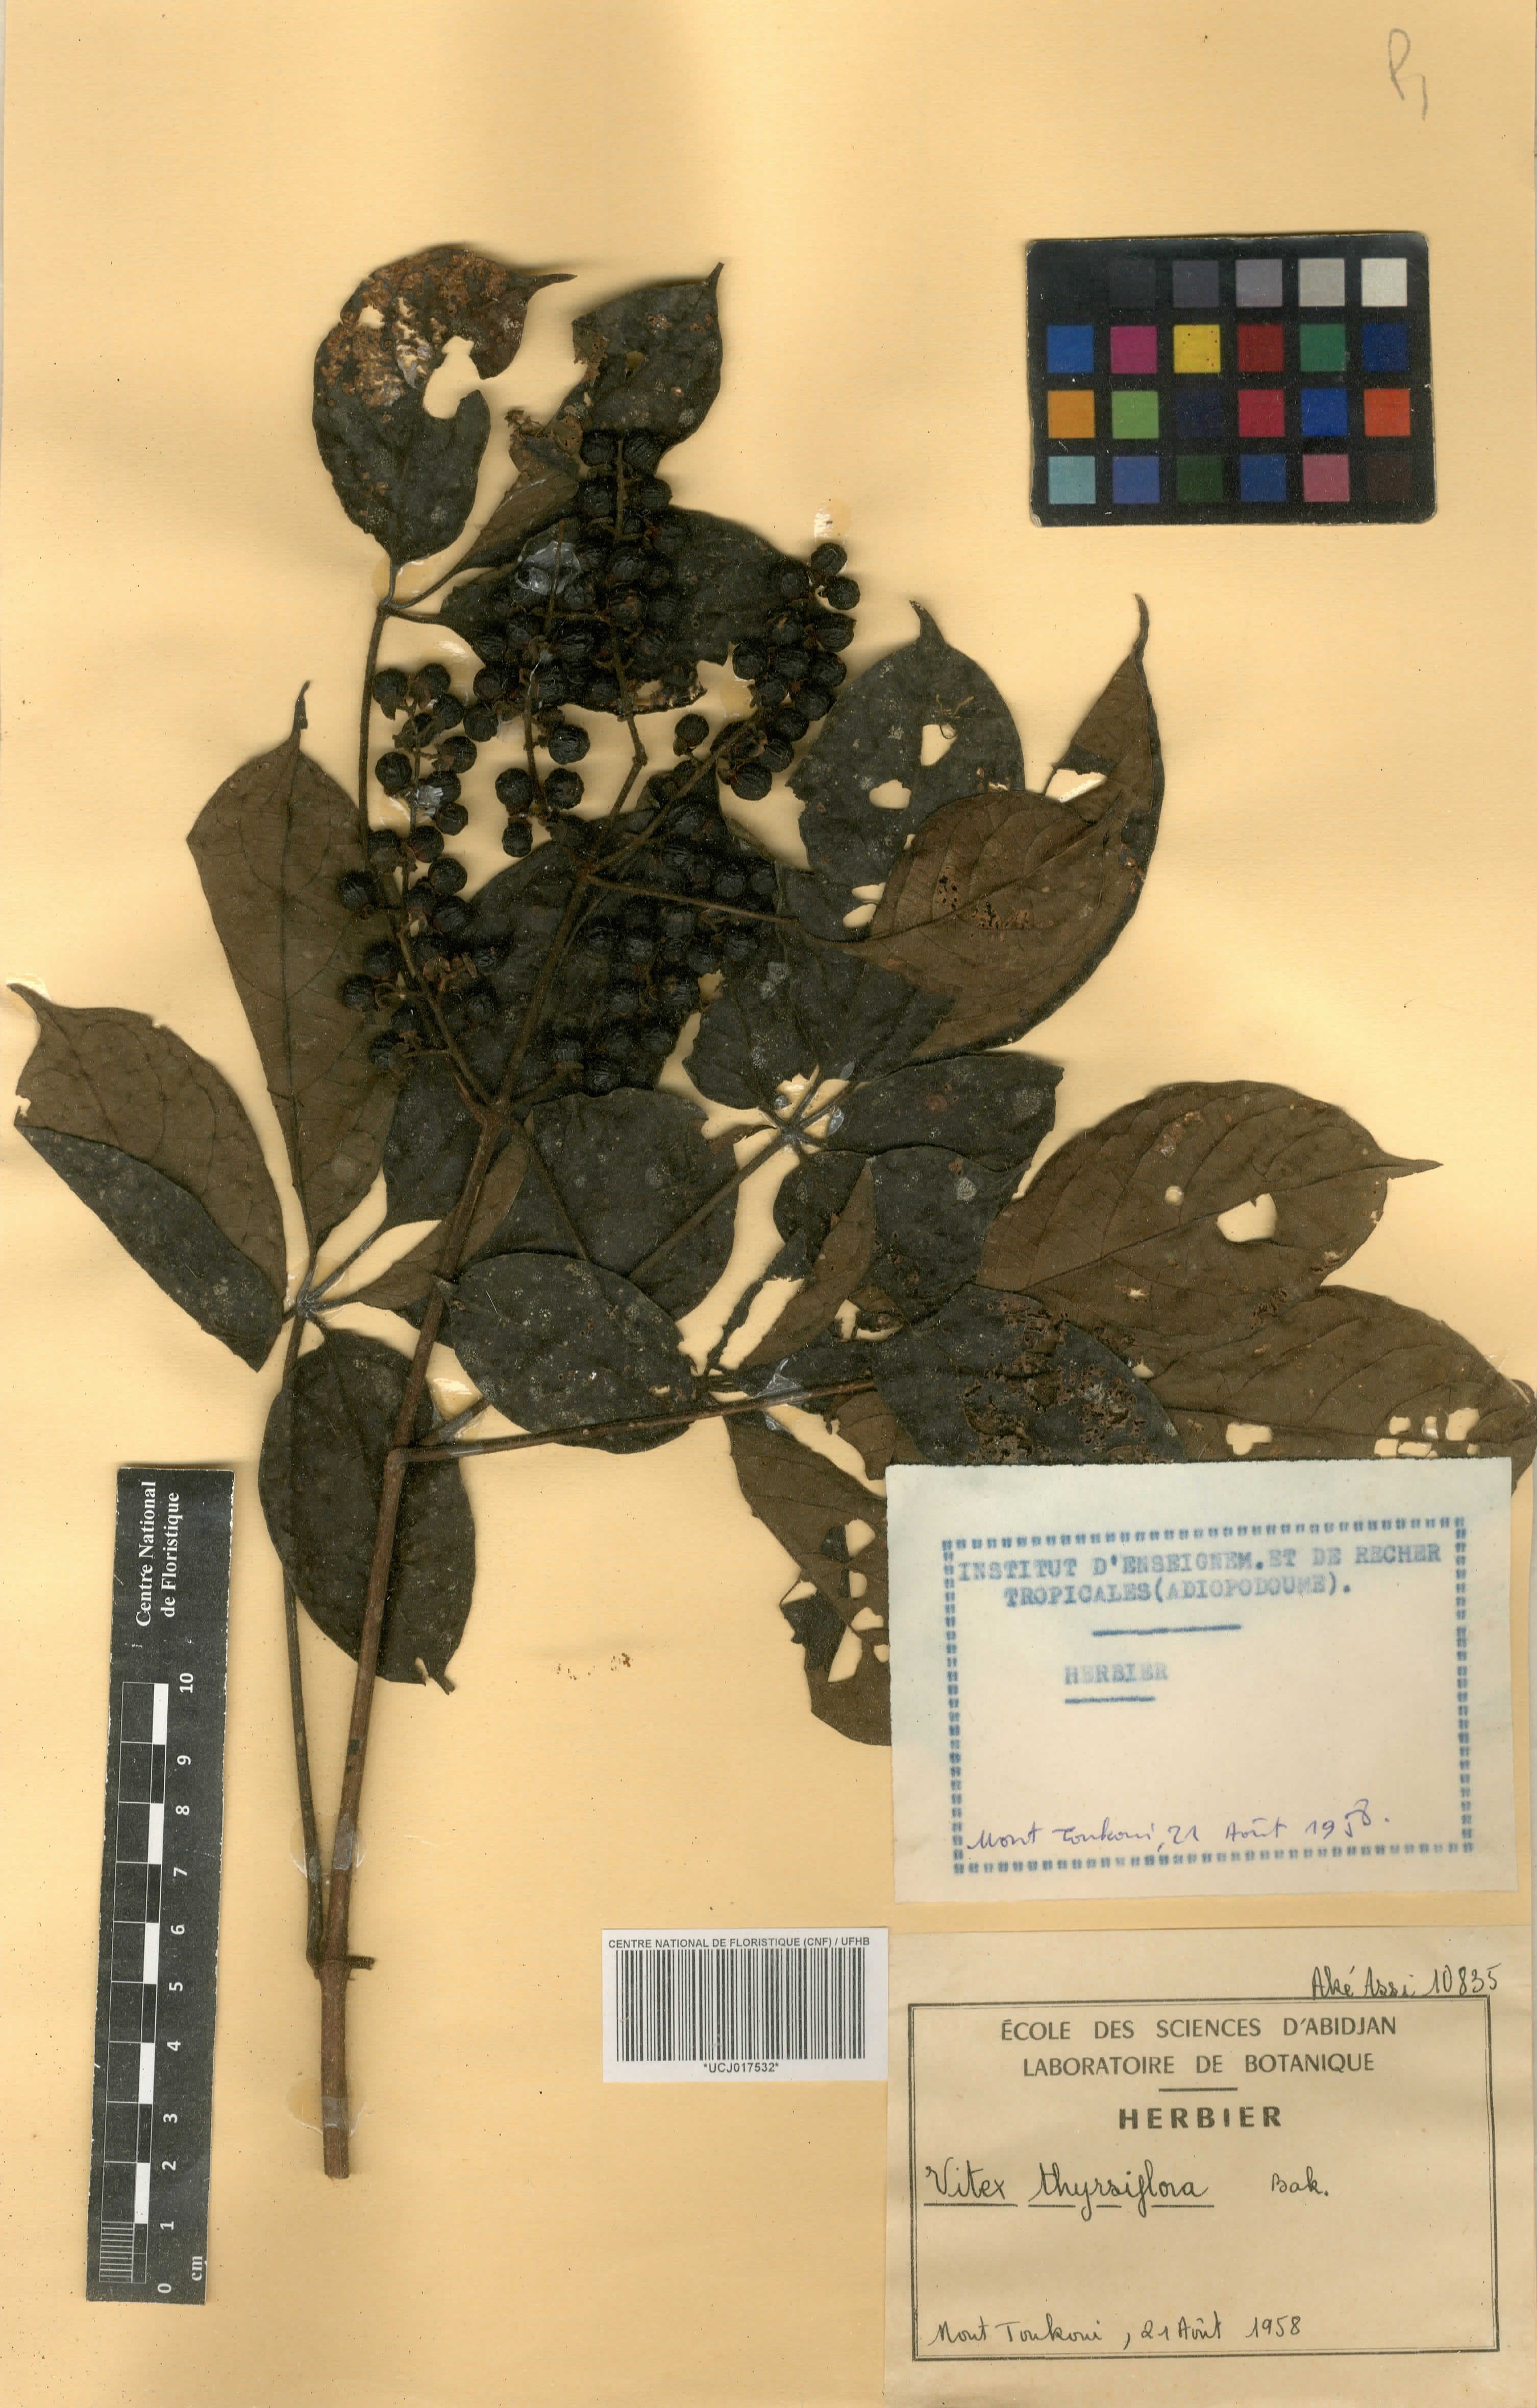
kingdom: Plantae
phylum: Tracheophyta
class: Magnoliopsida
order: Lamiales
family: Lamiaceae
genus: Vitex
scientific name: Vitex thyrsiflora
